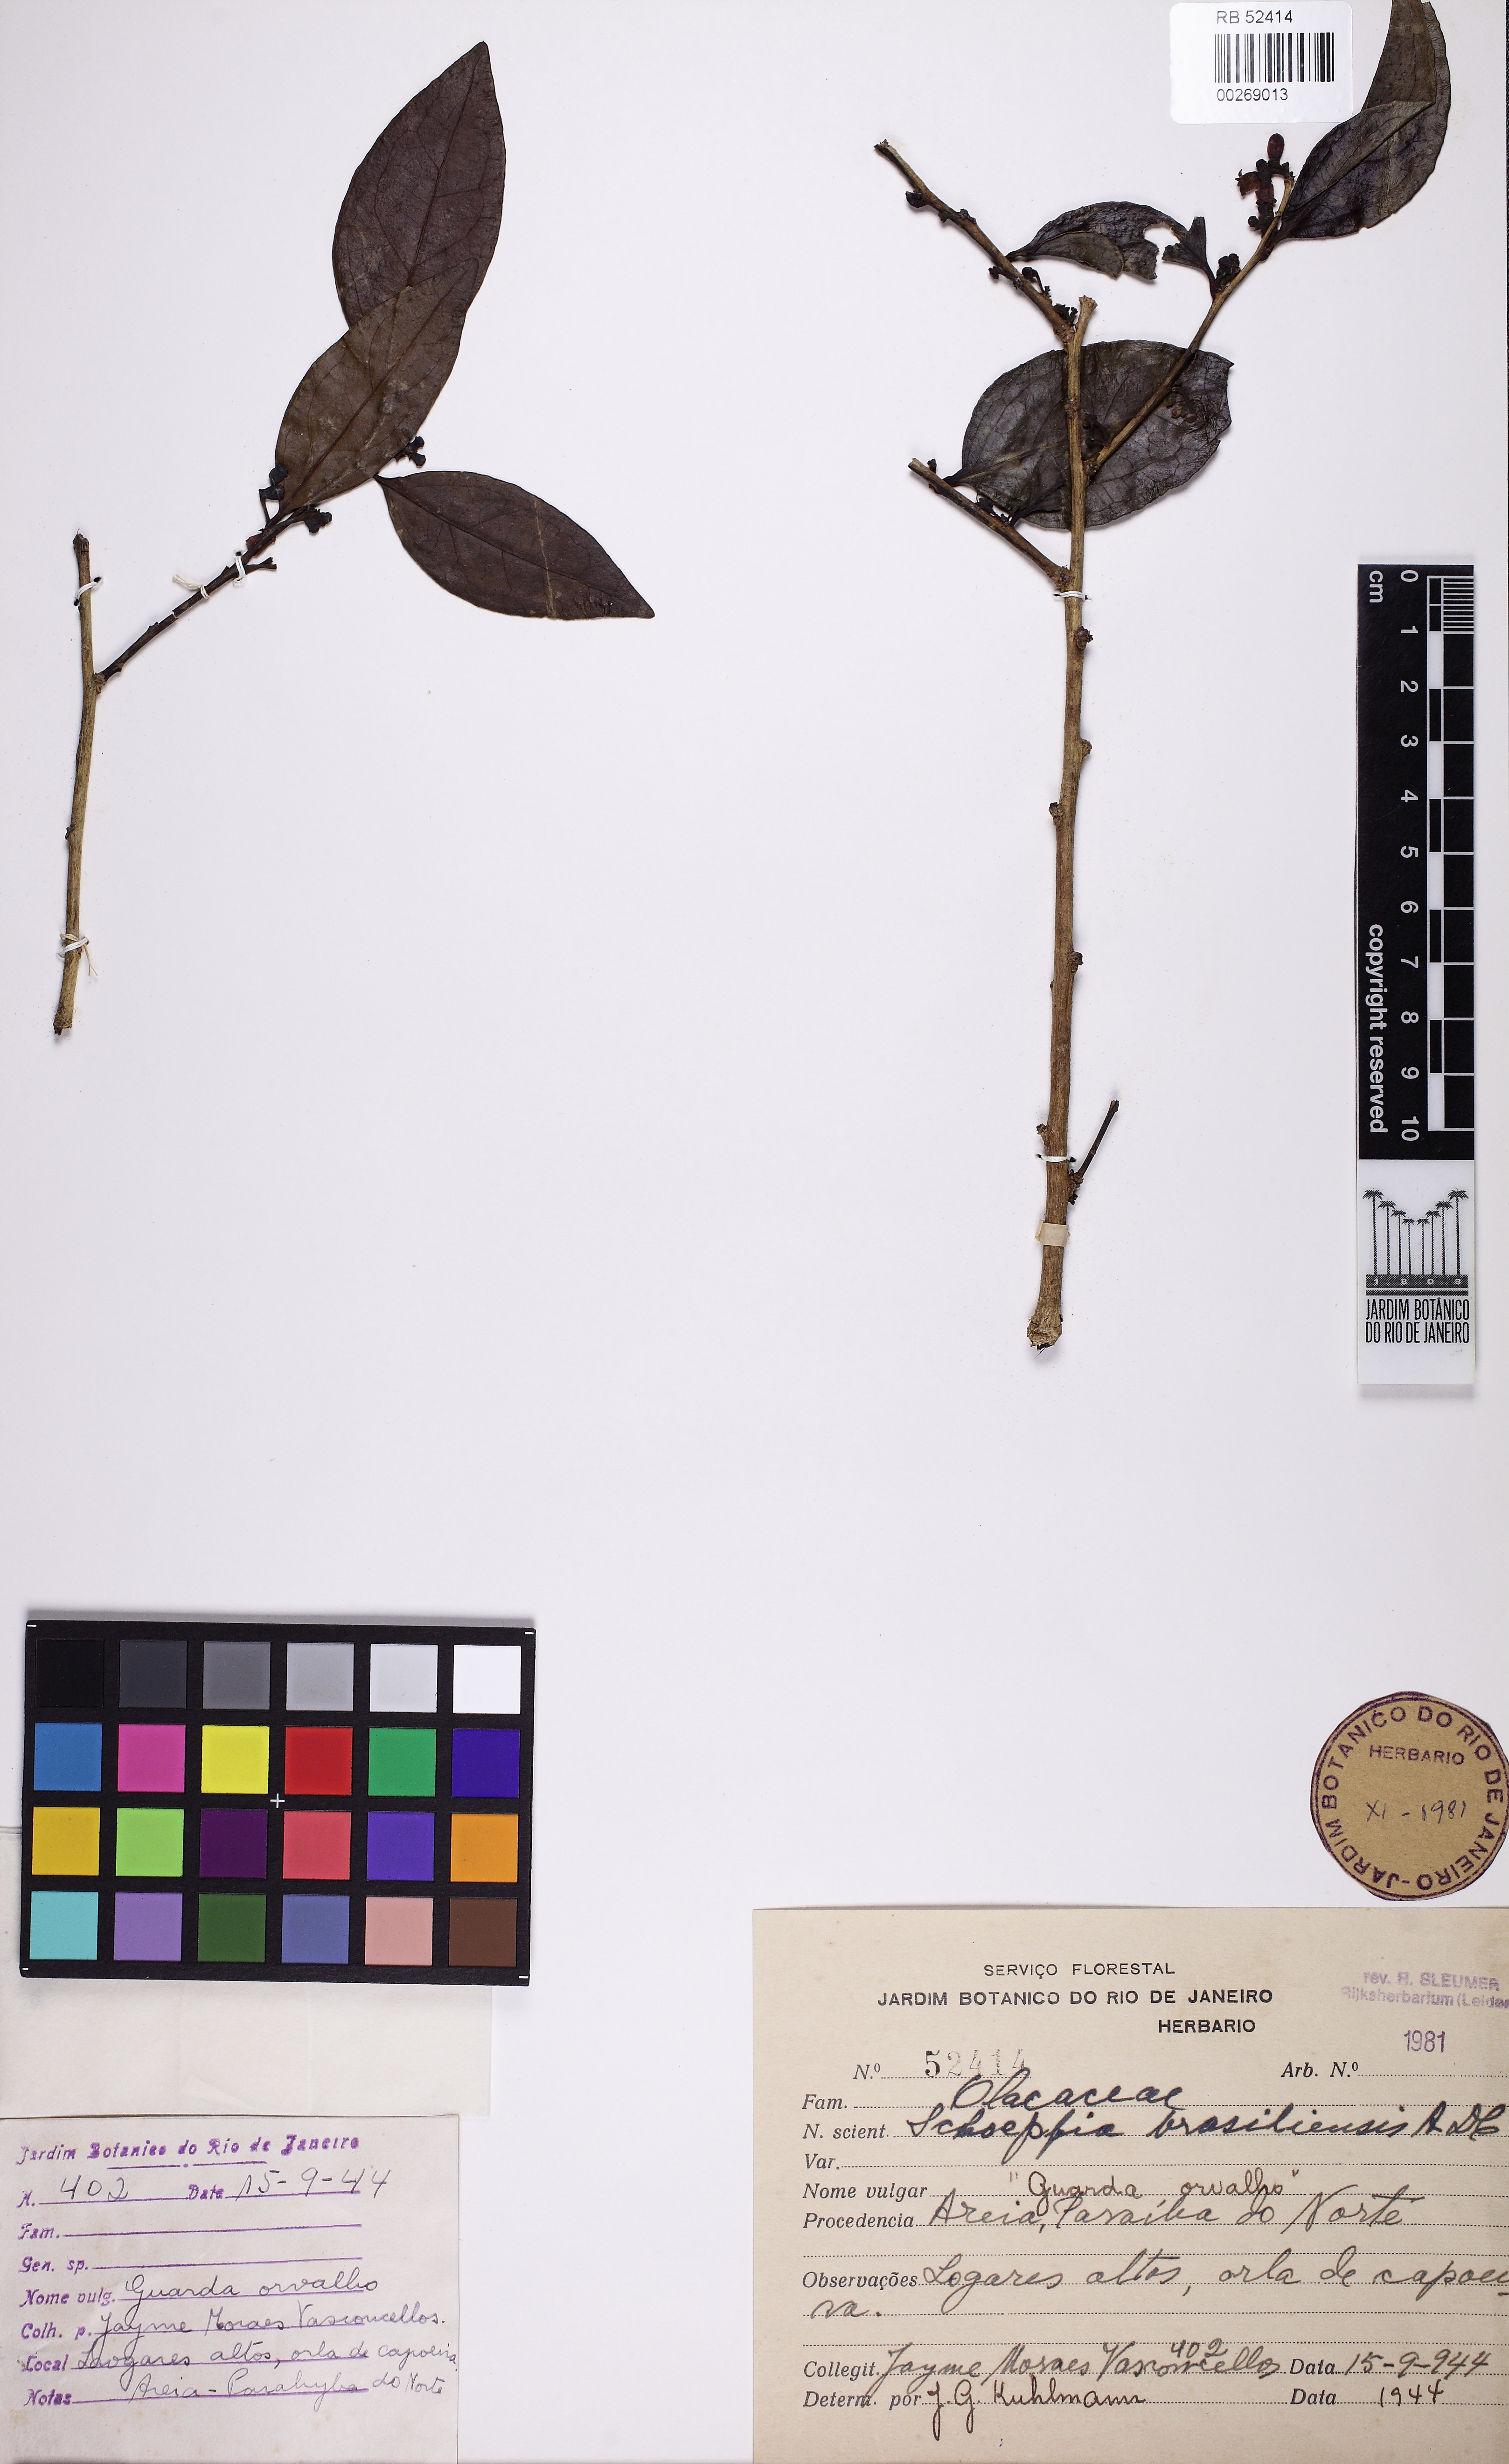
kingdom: Plantae
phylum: Tracheophyta
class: Magnoliopsida
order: Santalales
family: Schoepfiaceae
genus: Schoepfia
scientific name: Schoepfia brasiliensis
